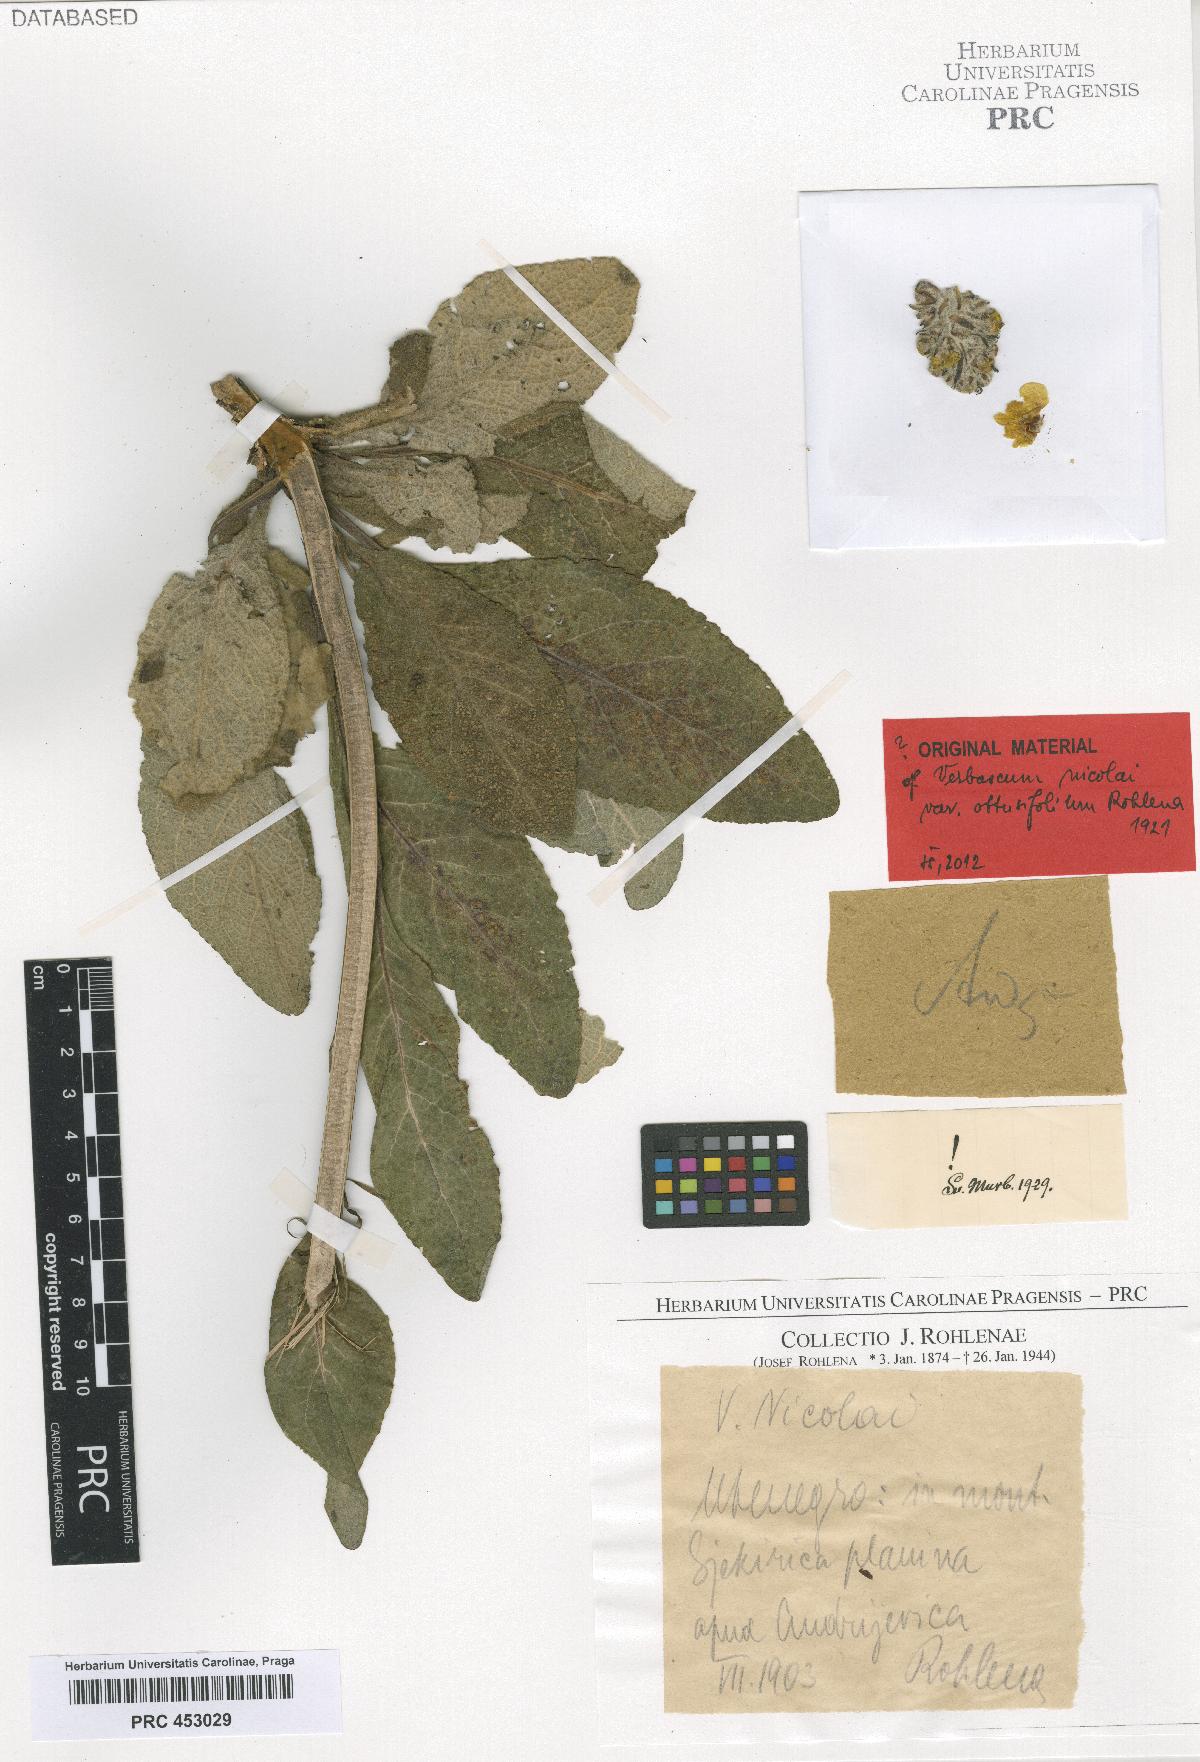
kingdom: Plantae
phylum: Tracheophyta
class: Magnoliopsida
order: Lamiales
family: Scrophulariaceae
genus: Verbascum
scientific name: Verbascum nicolai
